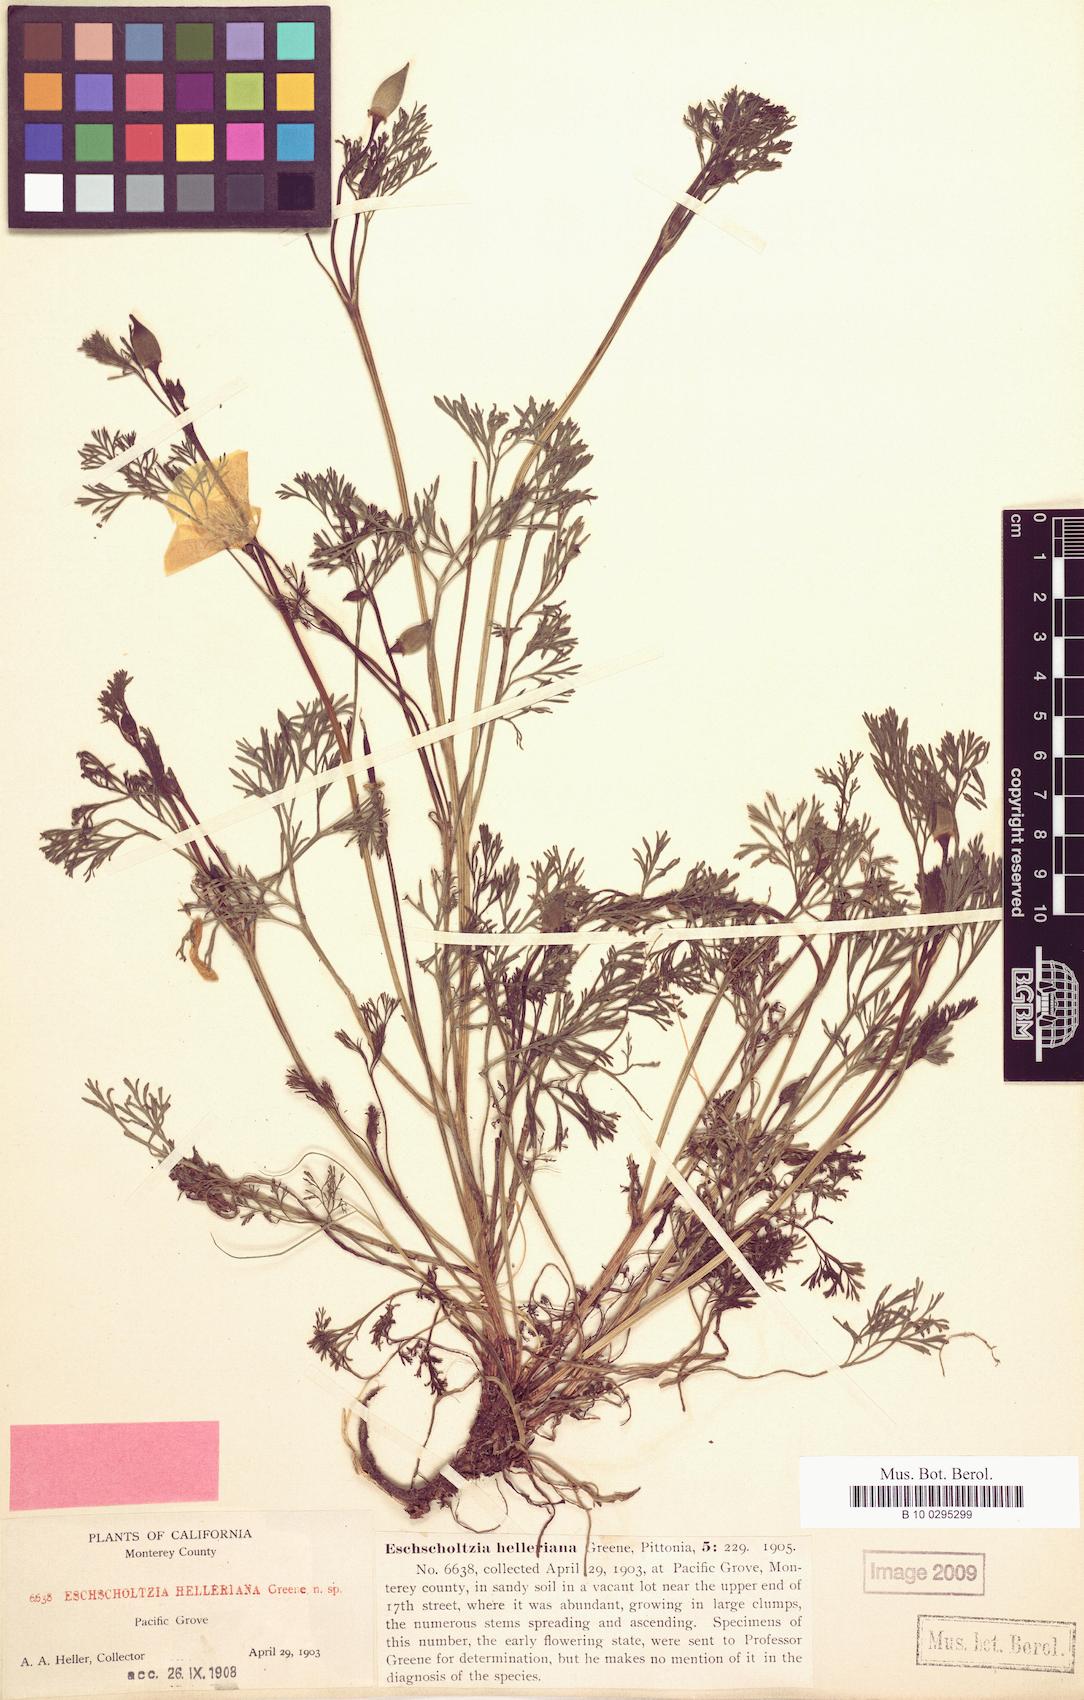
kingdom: Plantae
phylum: Tracheophyta
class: Magnoliopsida
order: Ranunculales
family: Papaveraceae
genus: Eschscholzia
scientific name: Eschscholzia californica
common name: California poppy
